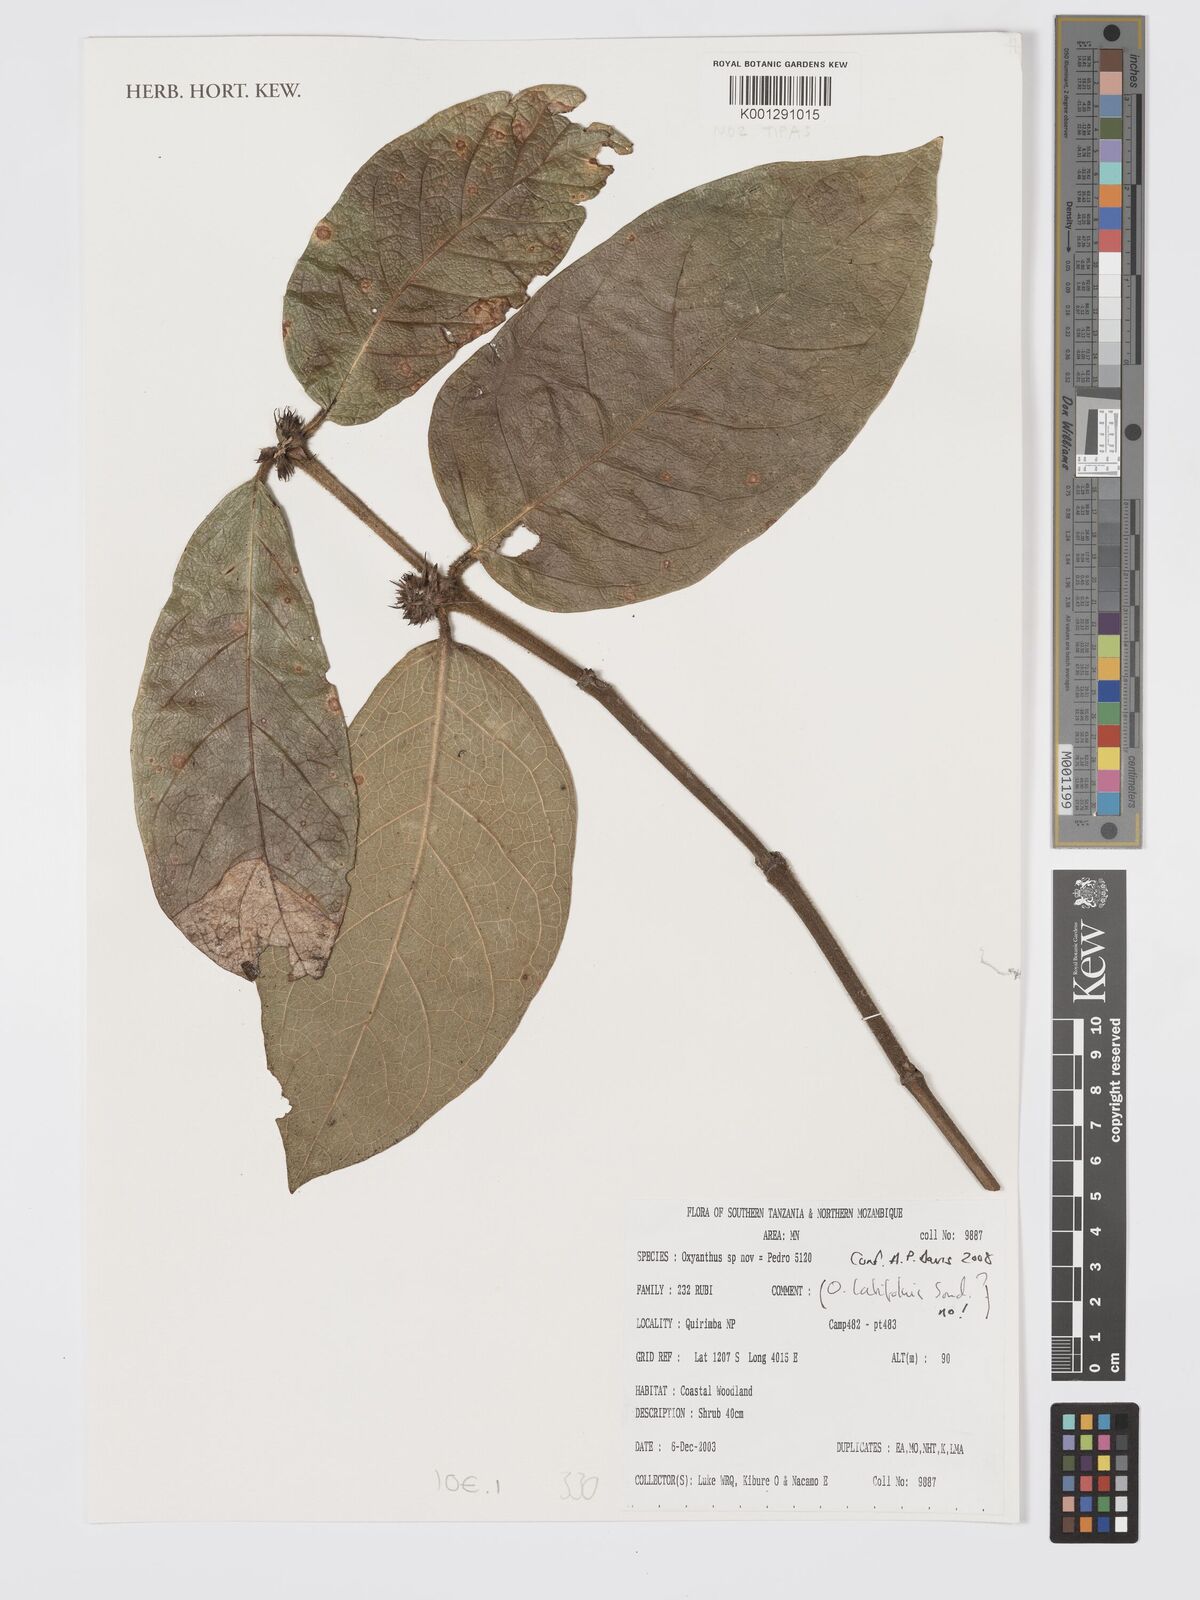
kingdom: Plantae
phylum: Tracheophyta
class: Magnoliopsida
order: Gentianales
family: Rubiaceae
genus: Oxyanthus
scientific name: Oxyanthus
